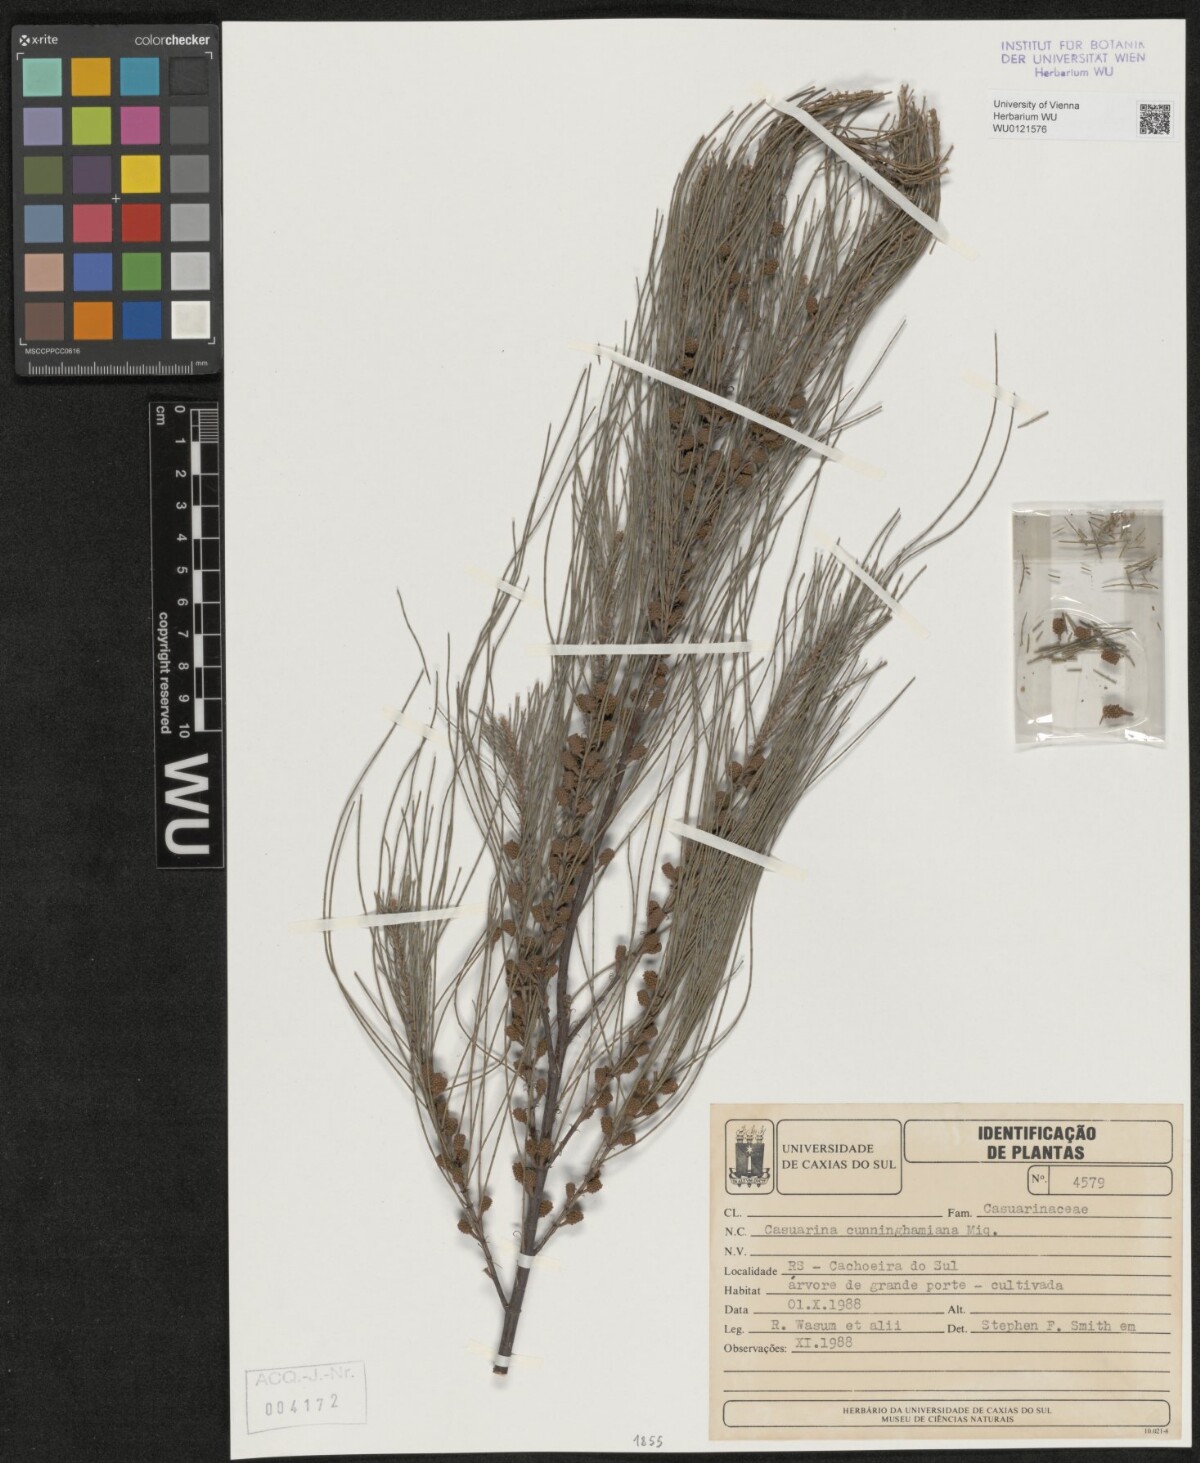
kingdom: Plantae
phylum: Tracheophyta
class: Magnoliopsida
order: Fagales
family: Casuarinaceae
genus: Casuarina
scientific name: Casuarina cunninghamiana
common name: River sheoak
